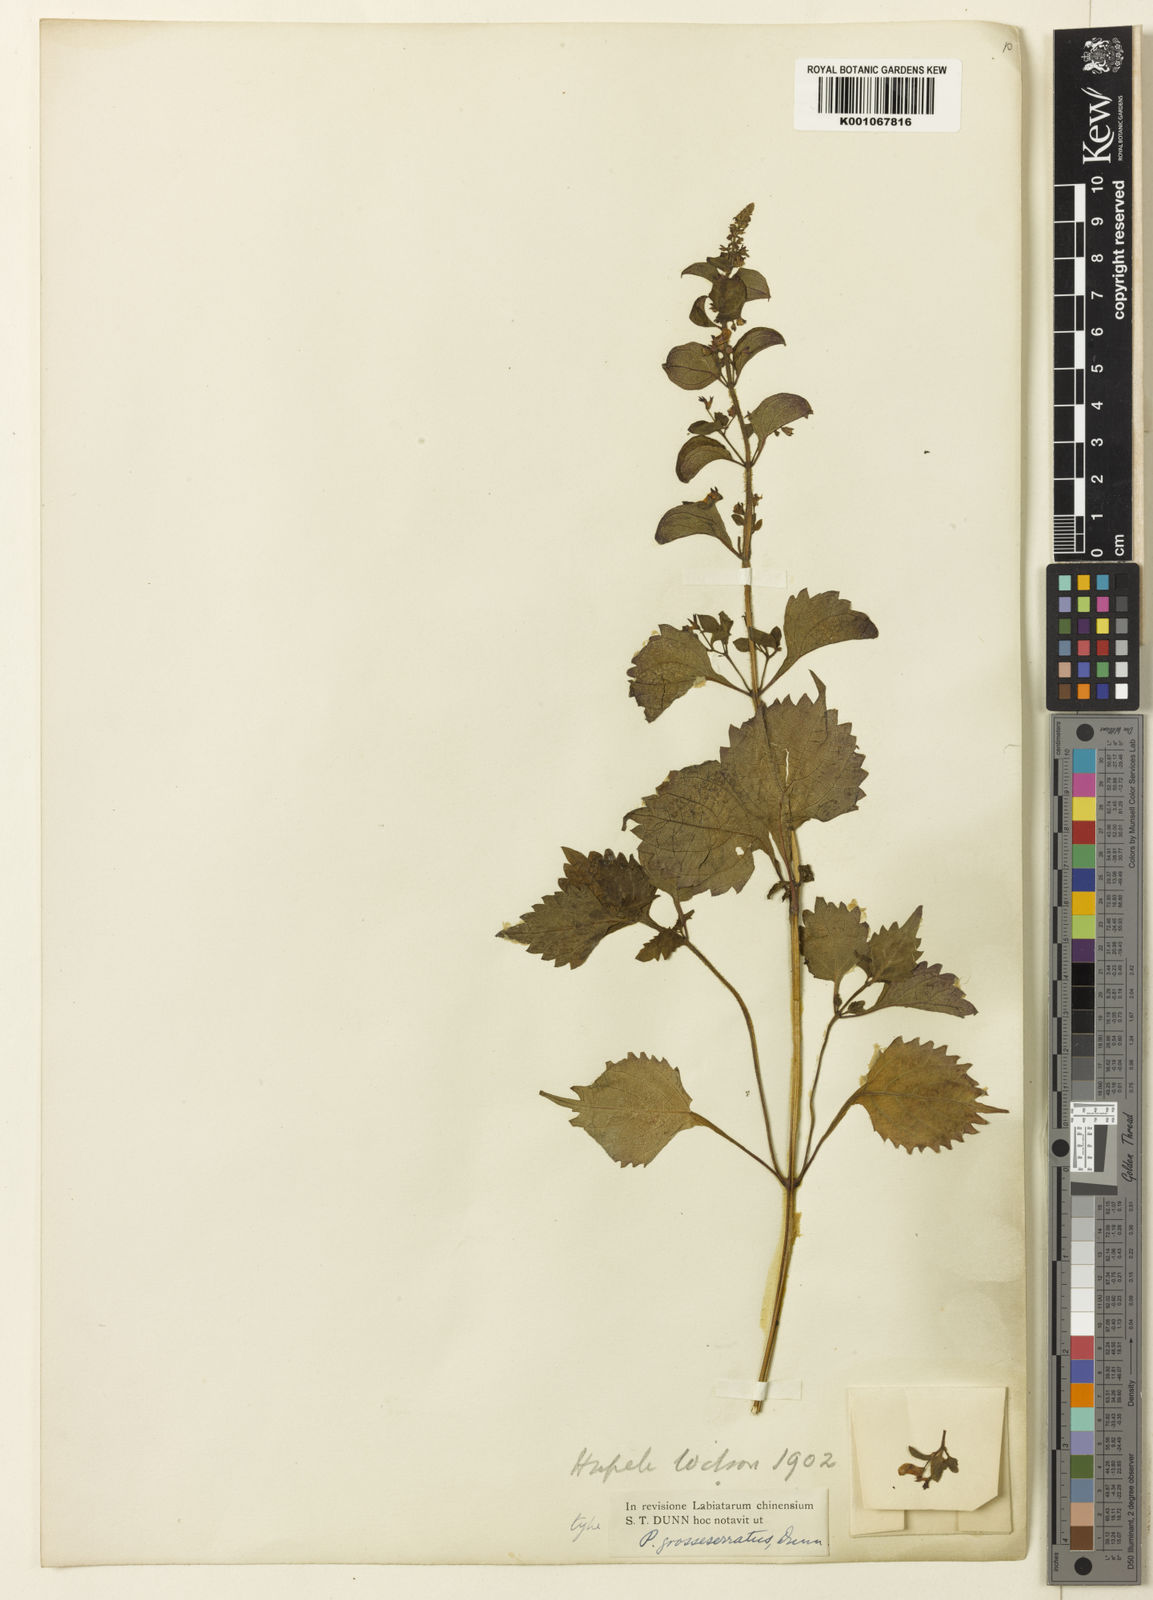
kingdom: Plantae
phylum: Tracheophyta
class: Magnoliopsida
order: Lamiales
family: Lamiaceae
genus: Isodon
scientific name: Isodon
